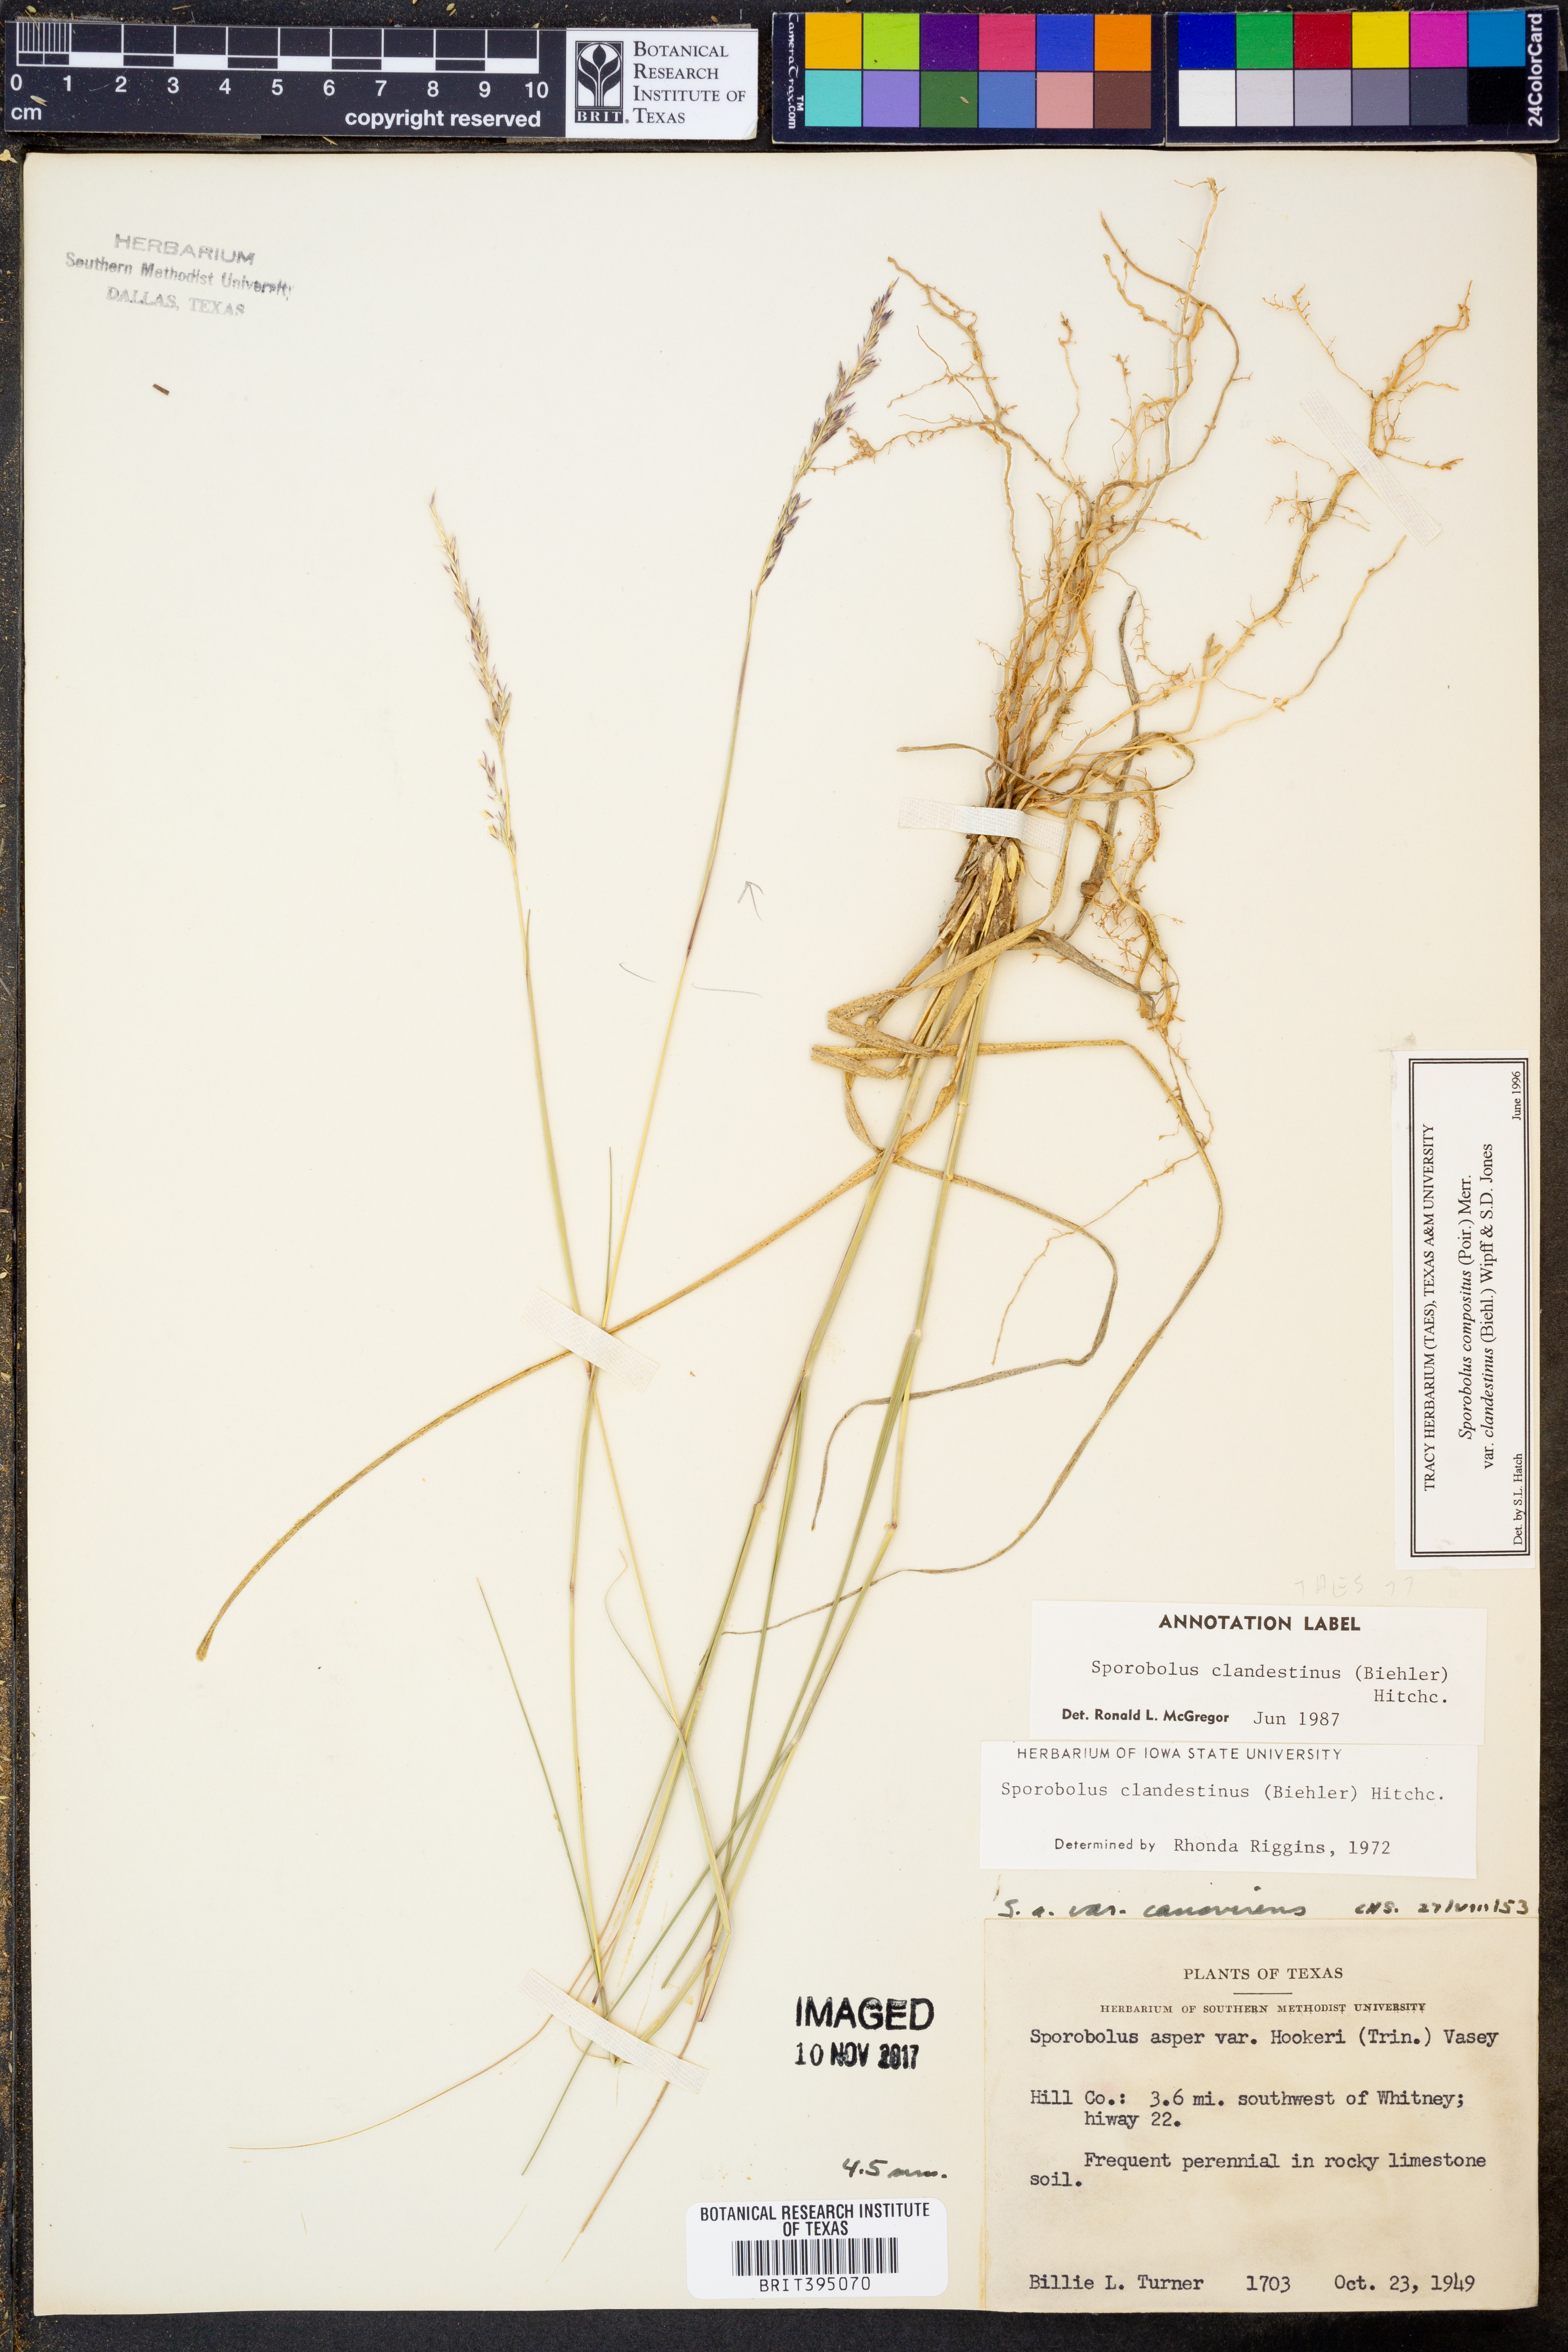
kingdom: Plantae
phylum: Tracheophyta
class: Liliopsida
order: Poales
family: Poaceae
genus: Sporobolus
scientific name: Sporobolus compositus
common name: Rough dropseed
